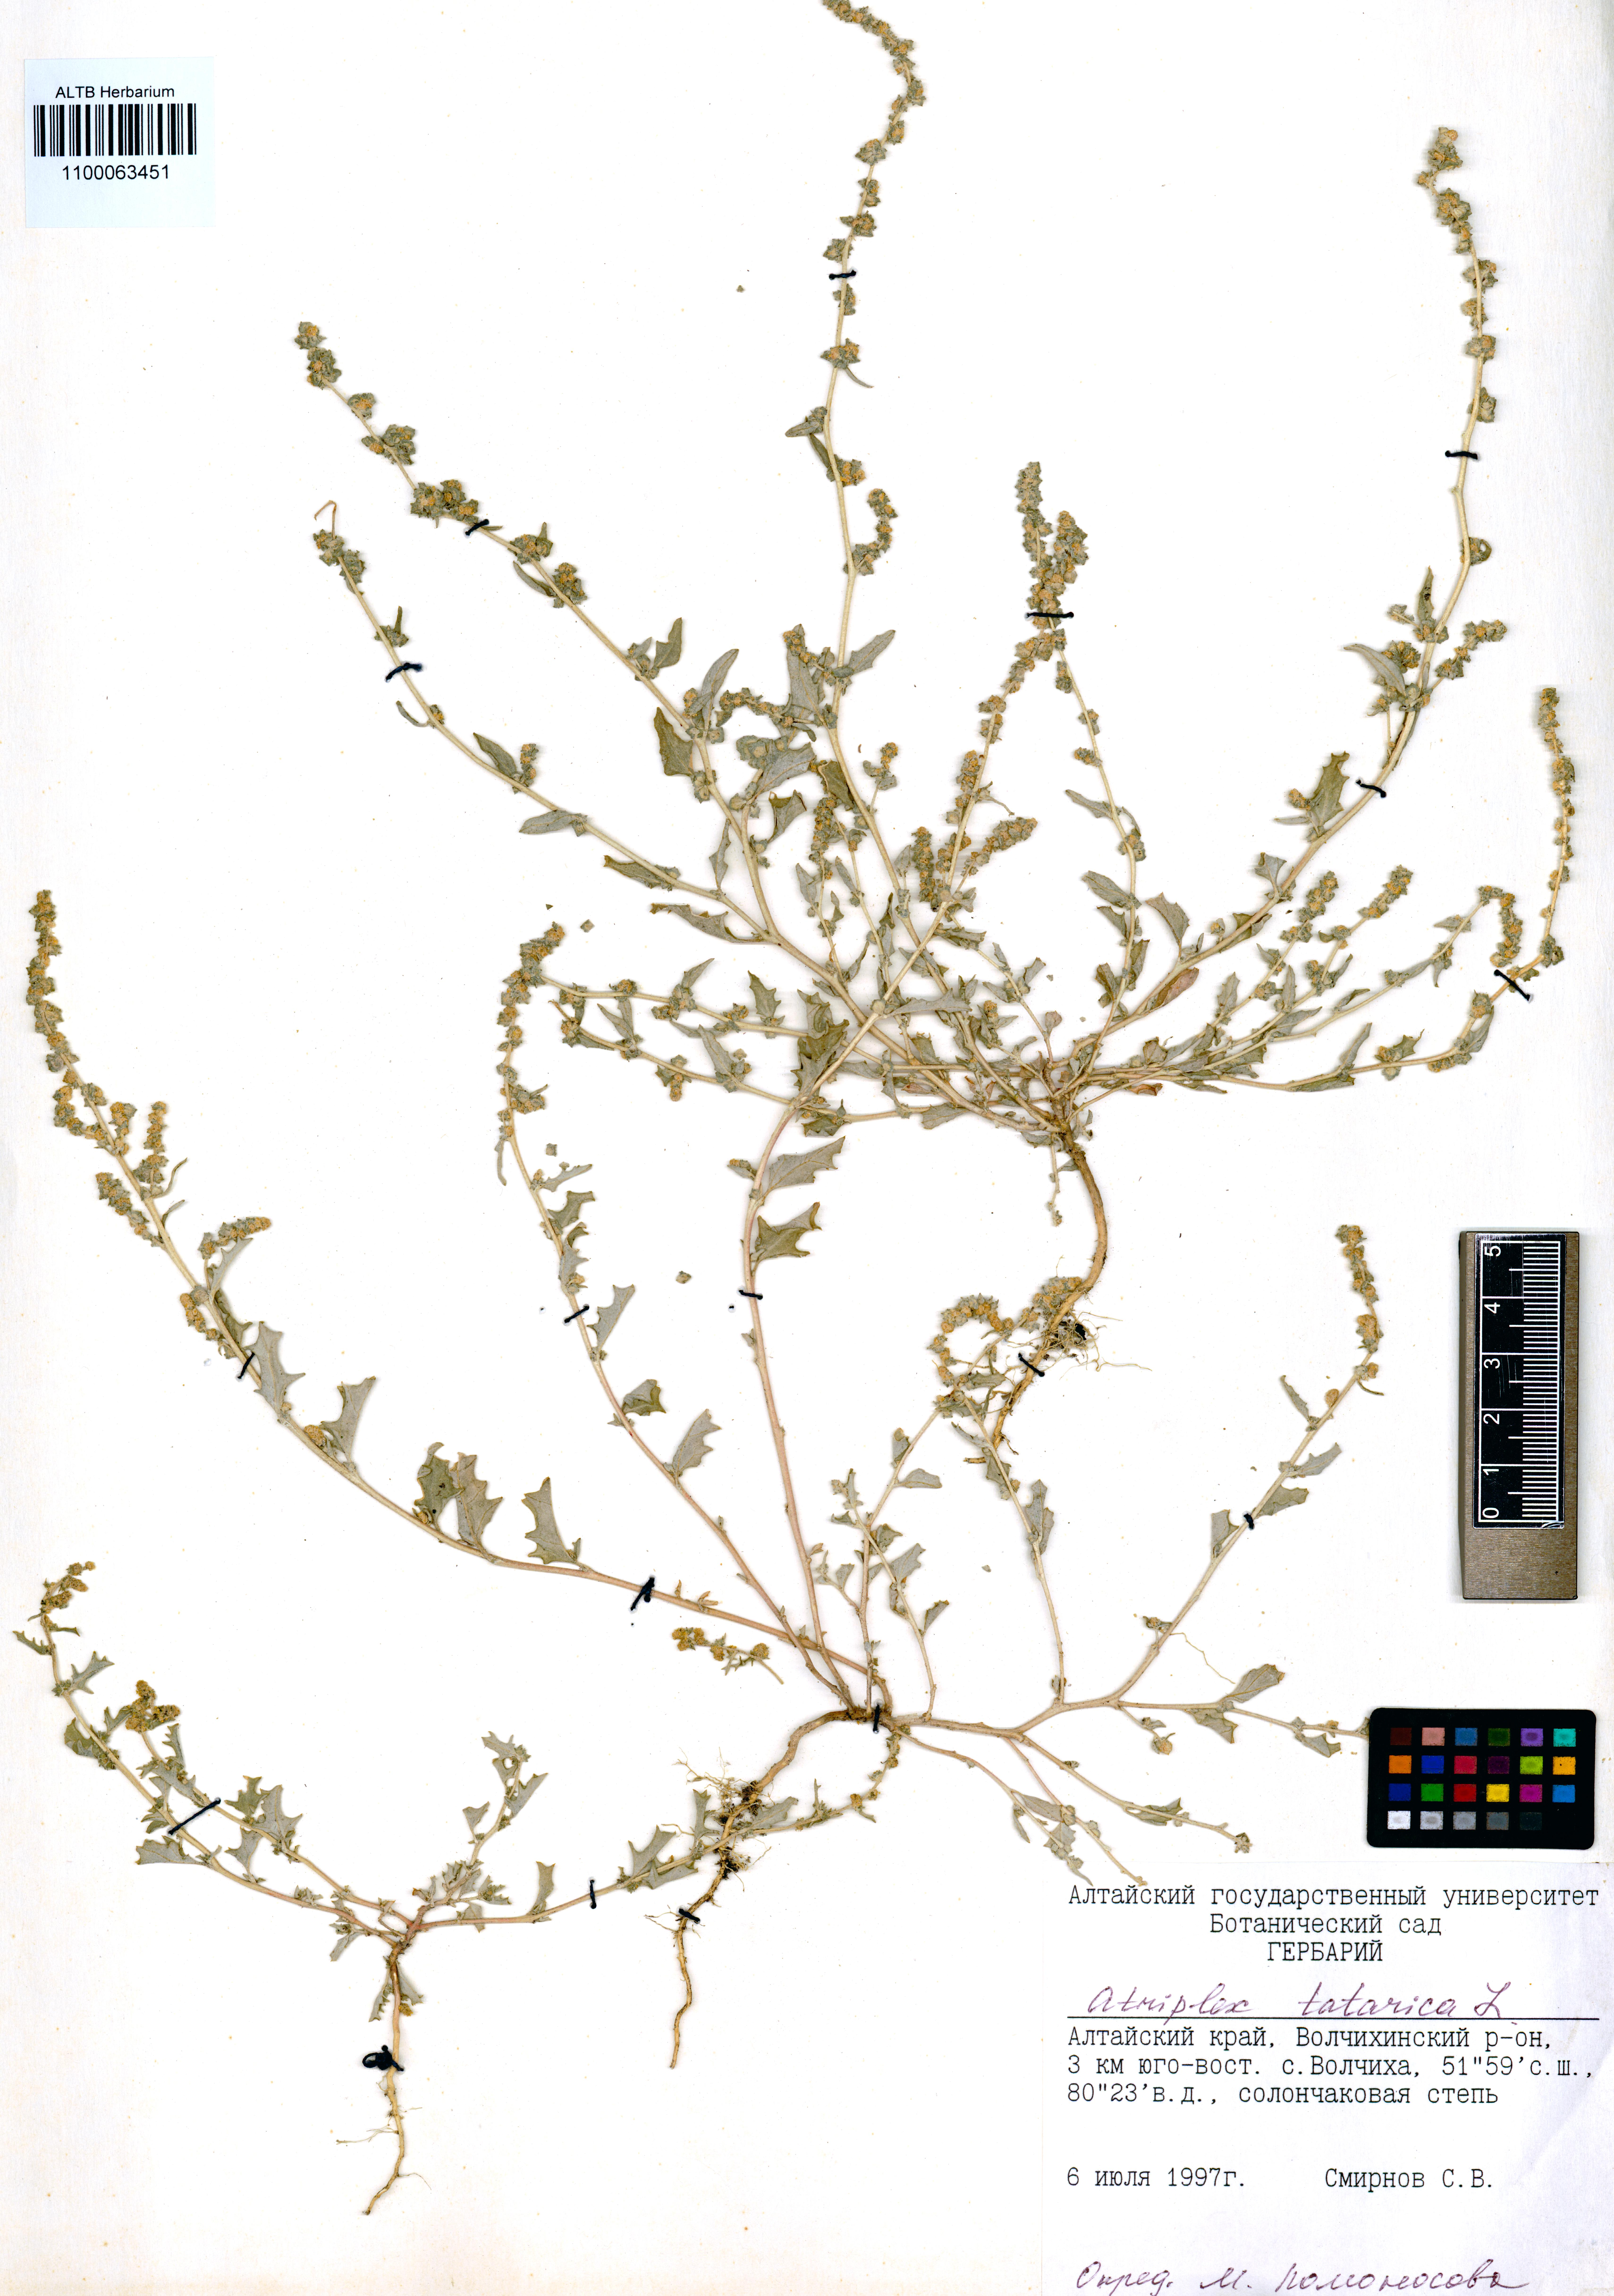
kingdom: Plantae
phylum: Tracheophyta
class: Magnoliopsida
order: Caryophyllales
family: Amaranthaceae
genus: Atriplex
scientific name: Atriplex tatarica
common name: Tatarian orache
